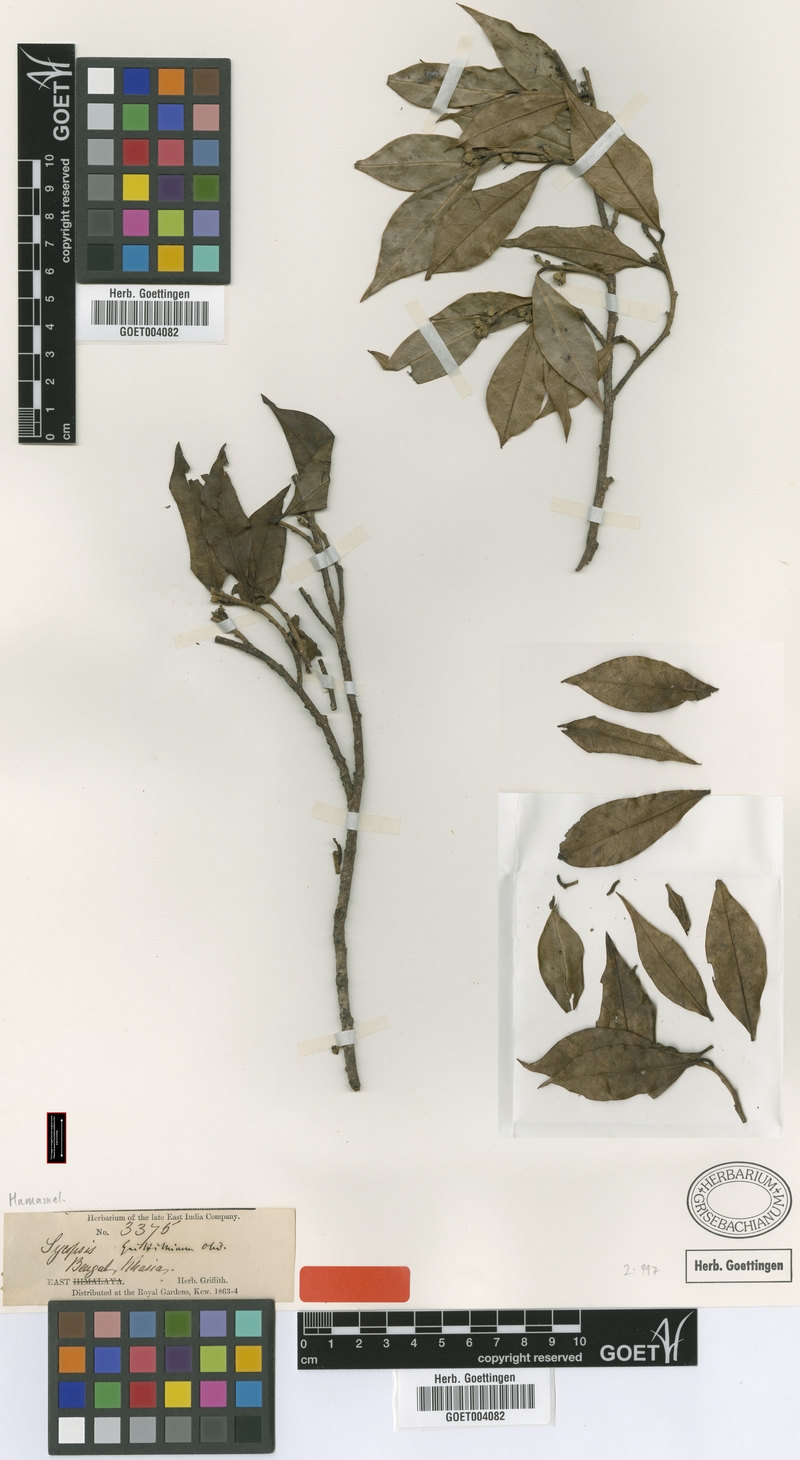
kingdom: Plantae
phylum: Tracheophyta
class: Magnoliopsida
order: Saxifragales
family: Hamamelidaceae
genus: Eustigma
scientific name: Eustigma lenticellatum
